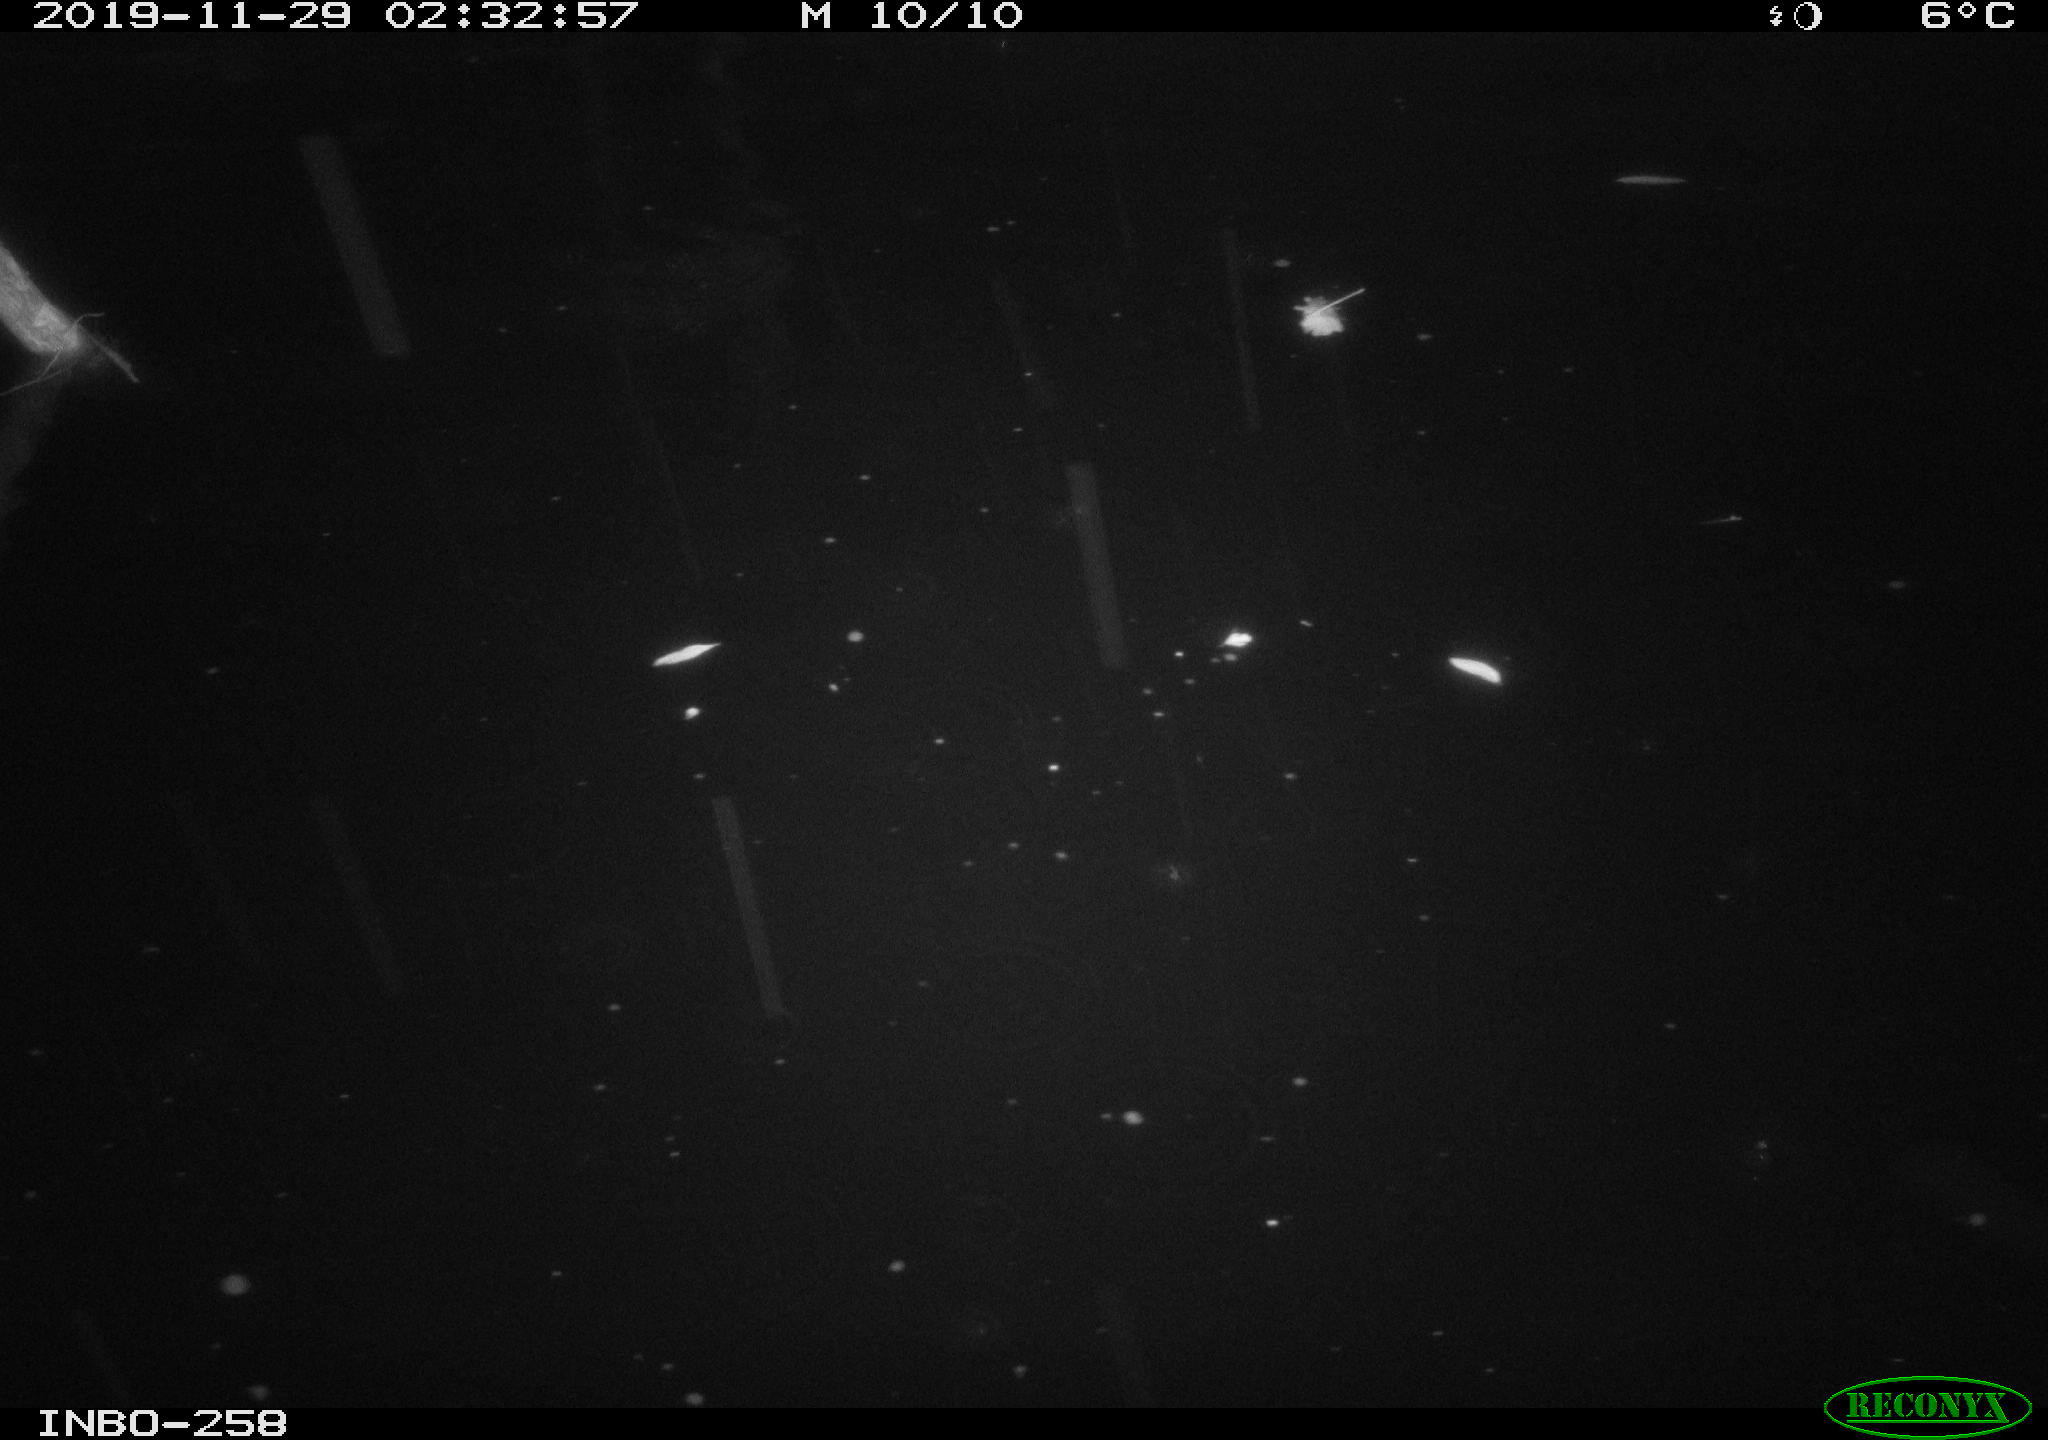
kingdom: Animalia
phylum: Chordata
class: Aves
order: Anseriformes
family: Anatidae
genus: Anas
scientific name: Anas platyrhynchos
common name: Mallard
